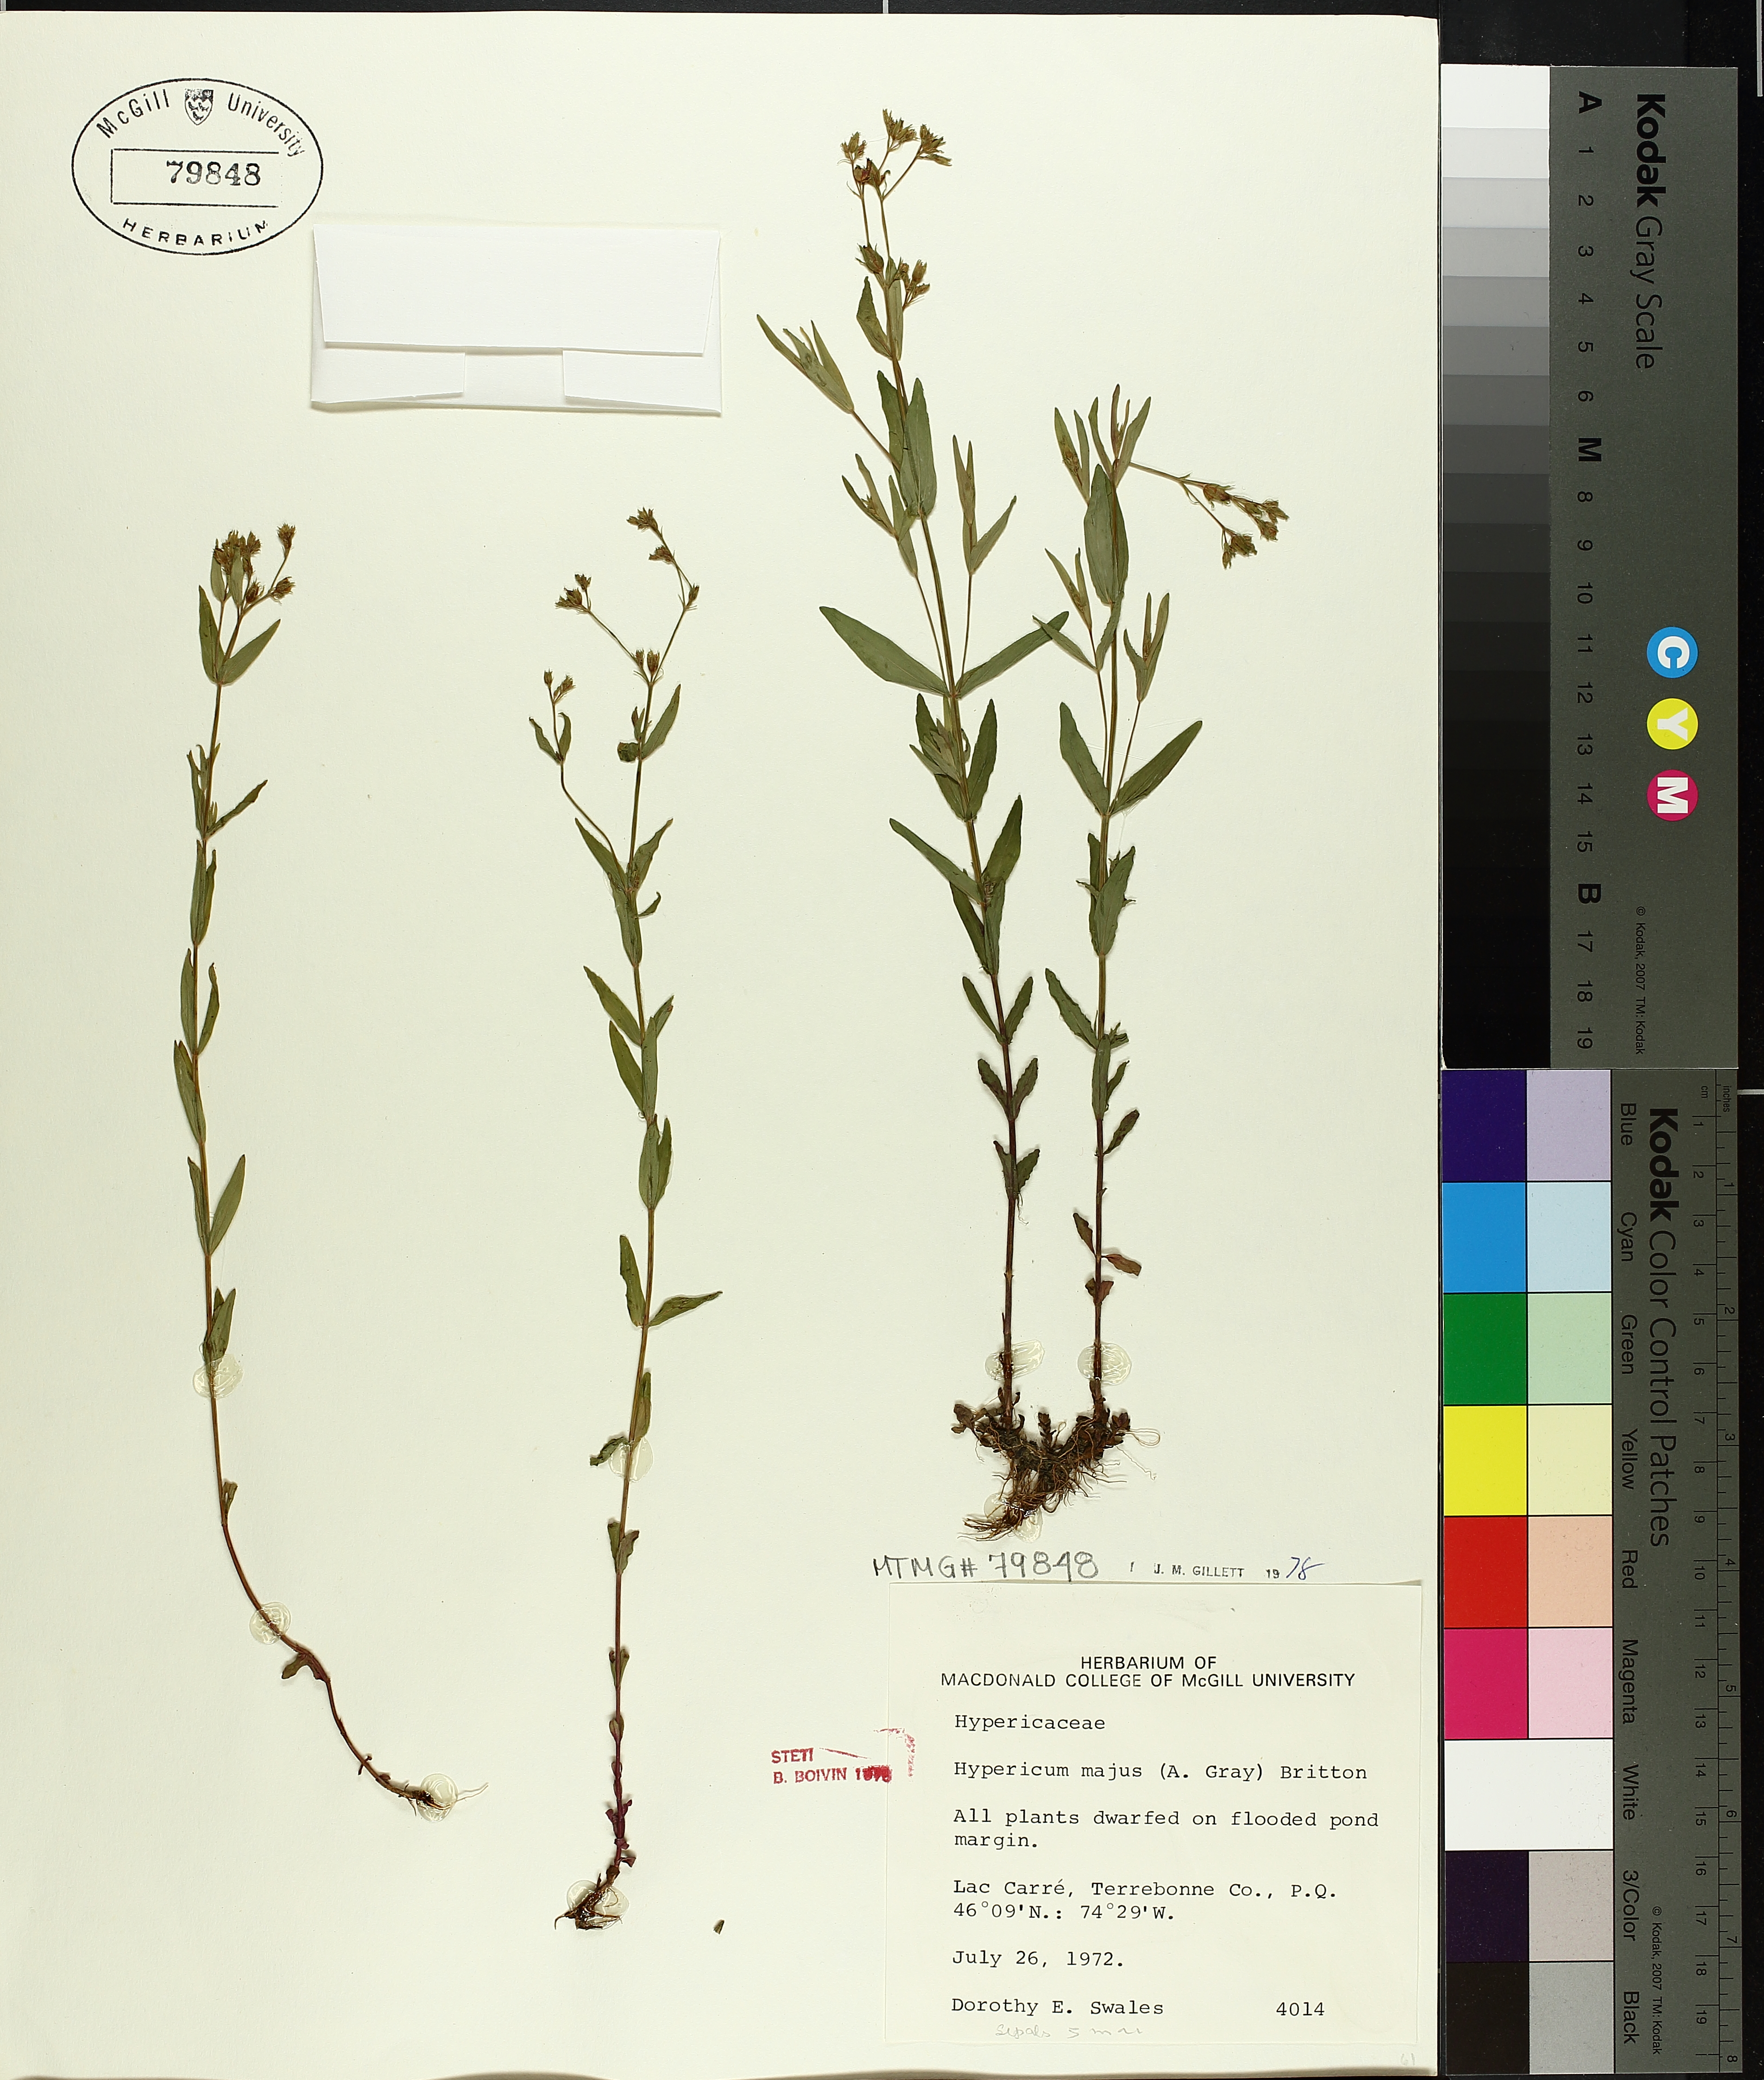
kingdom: Plantae
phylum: Tracheophyta
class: Magnoliopsida
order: Malpighiales
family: Hypericaceae
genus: Hypericum
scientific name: Hypericum majus
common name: Greater canadian st. john's-wort
